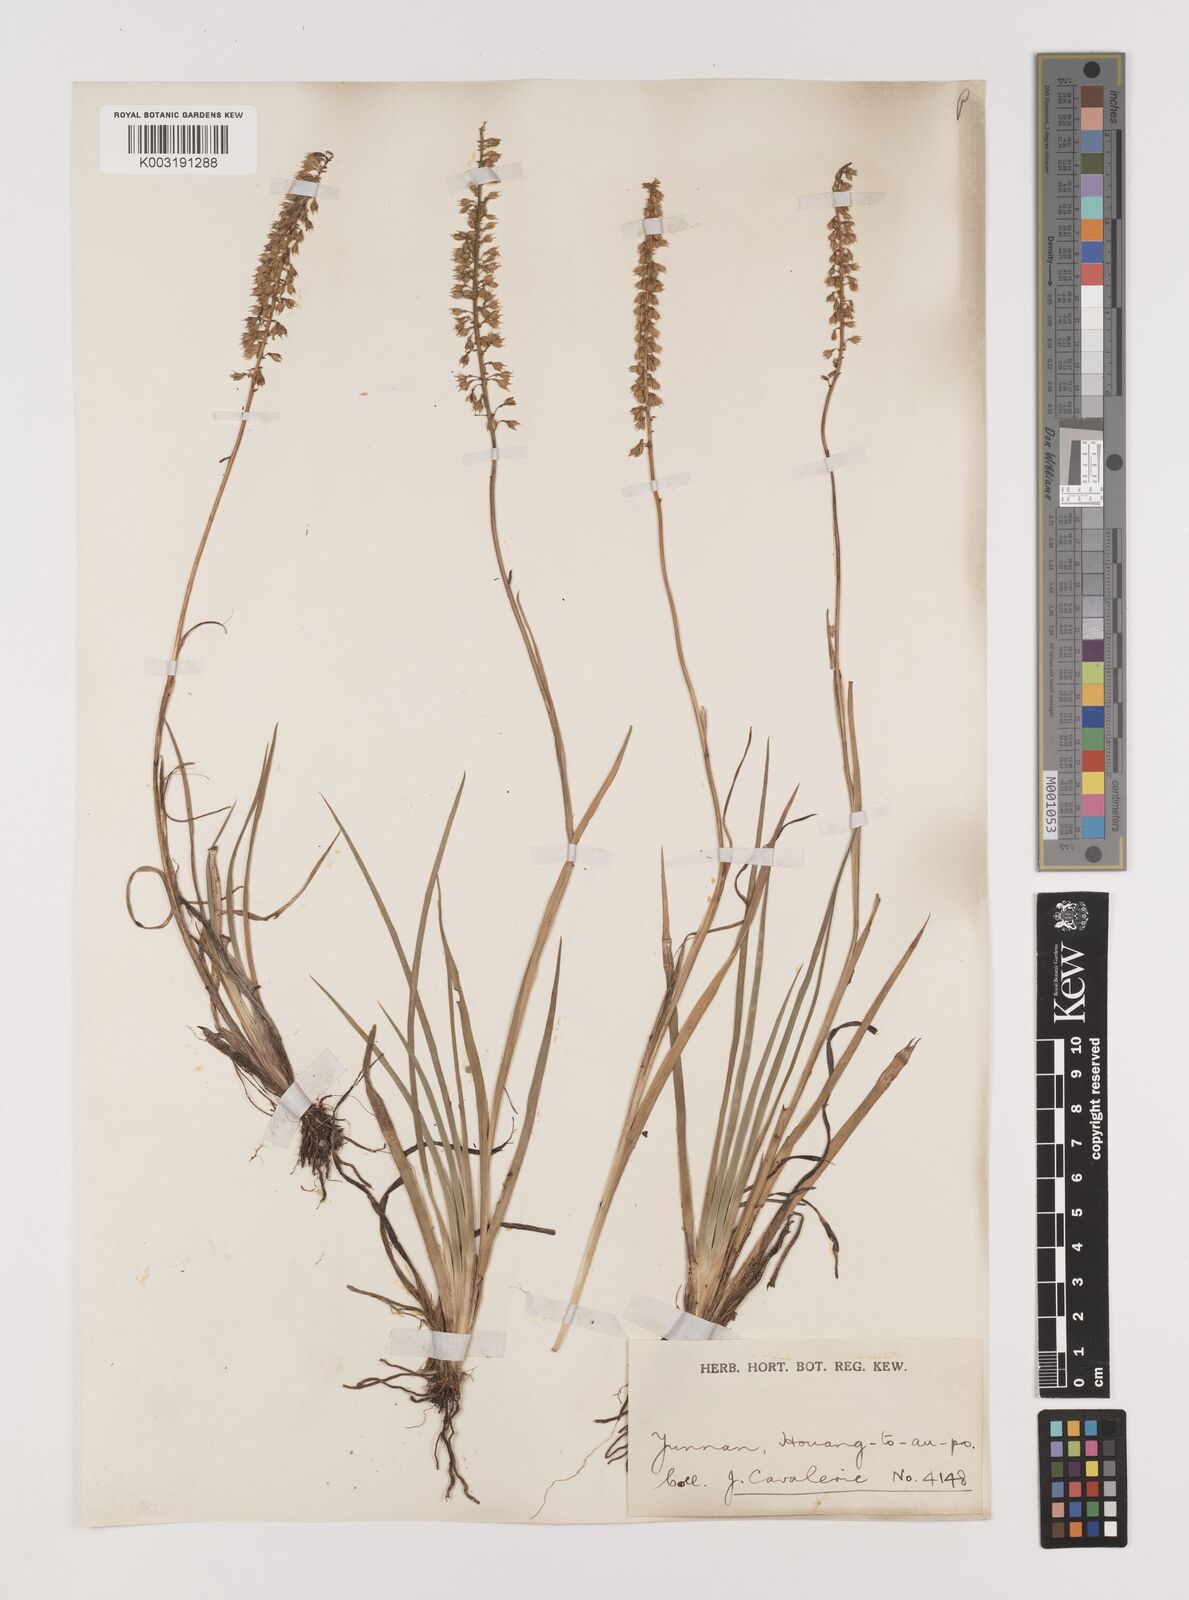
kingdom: Plantae
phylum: Tracheophyta
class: Liliopsida
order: Alismatales
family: Tofieldiaceae
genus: Tofieldia
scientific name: Tofieldia divergens
